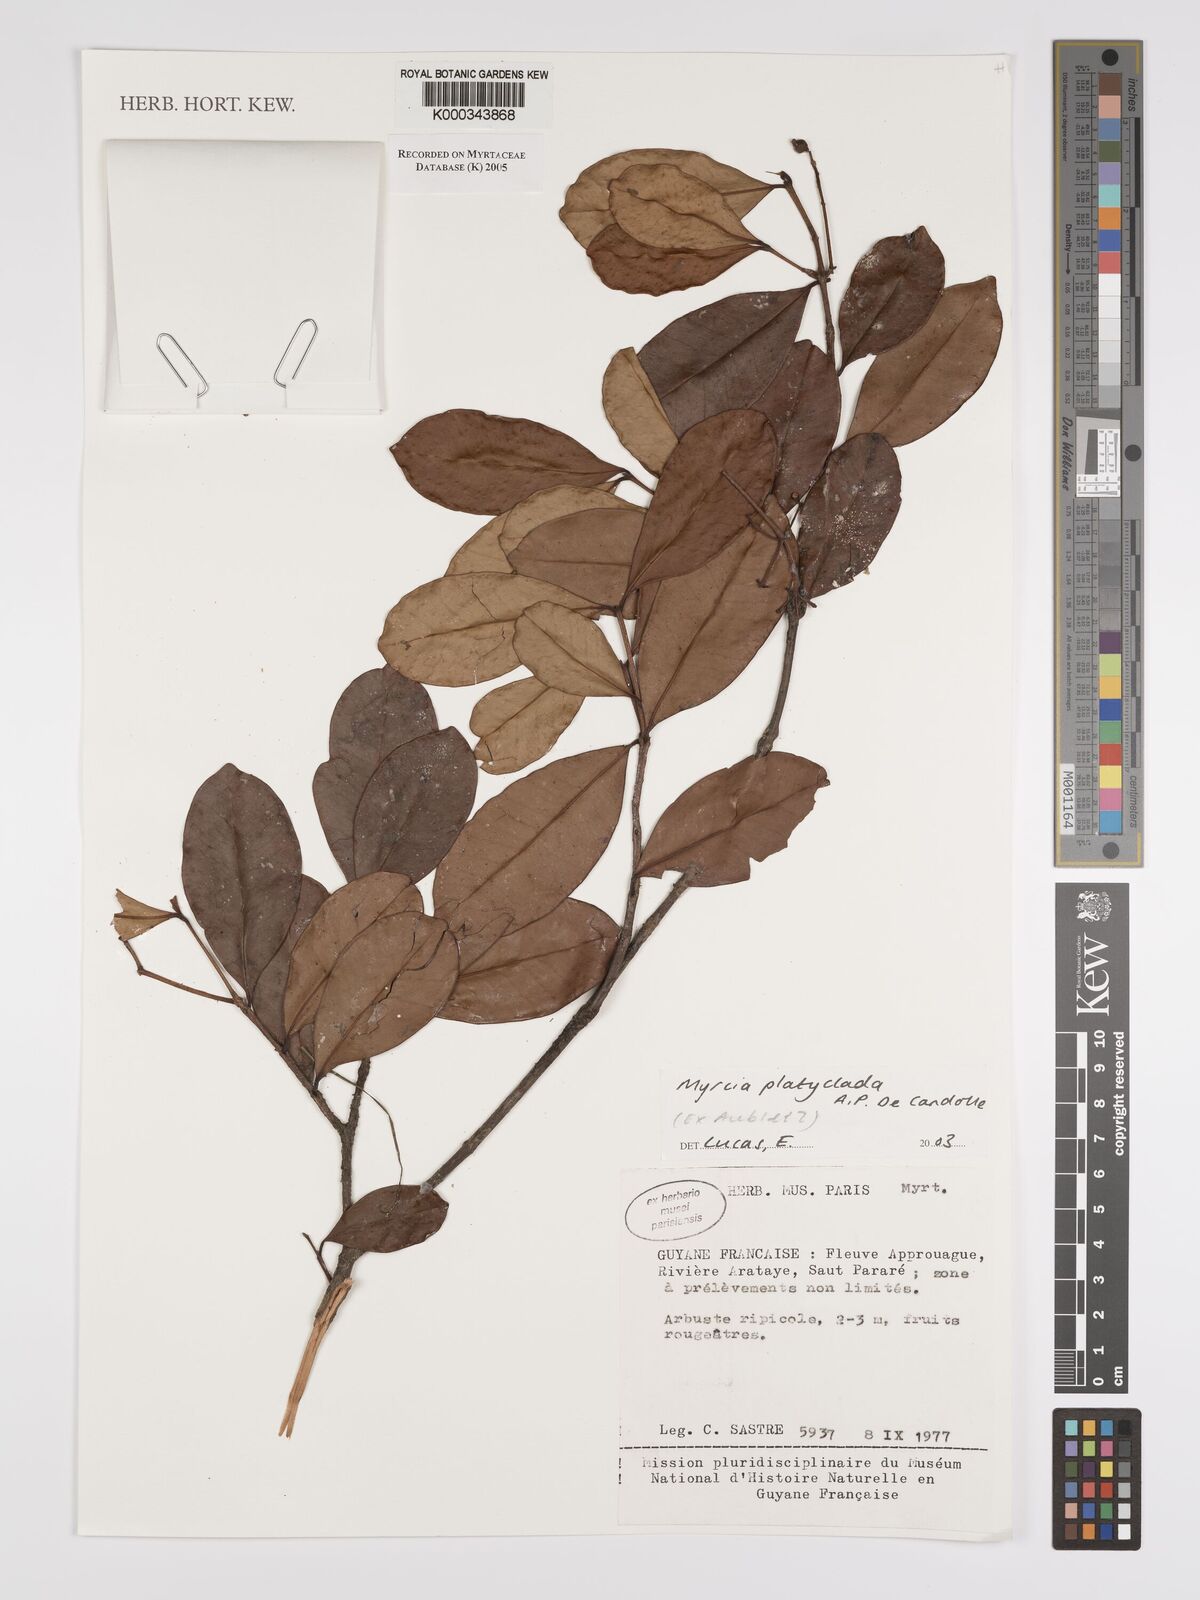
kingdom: Plantae
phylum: Tracheophyta
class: Magnoliopsida
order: Myrtales
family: Myrtaceae
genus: Myrcia
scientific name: Myrcia platyclada
